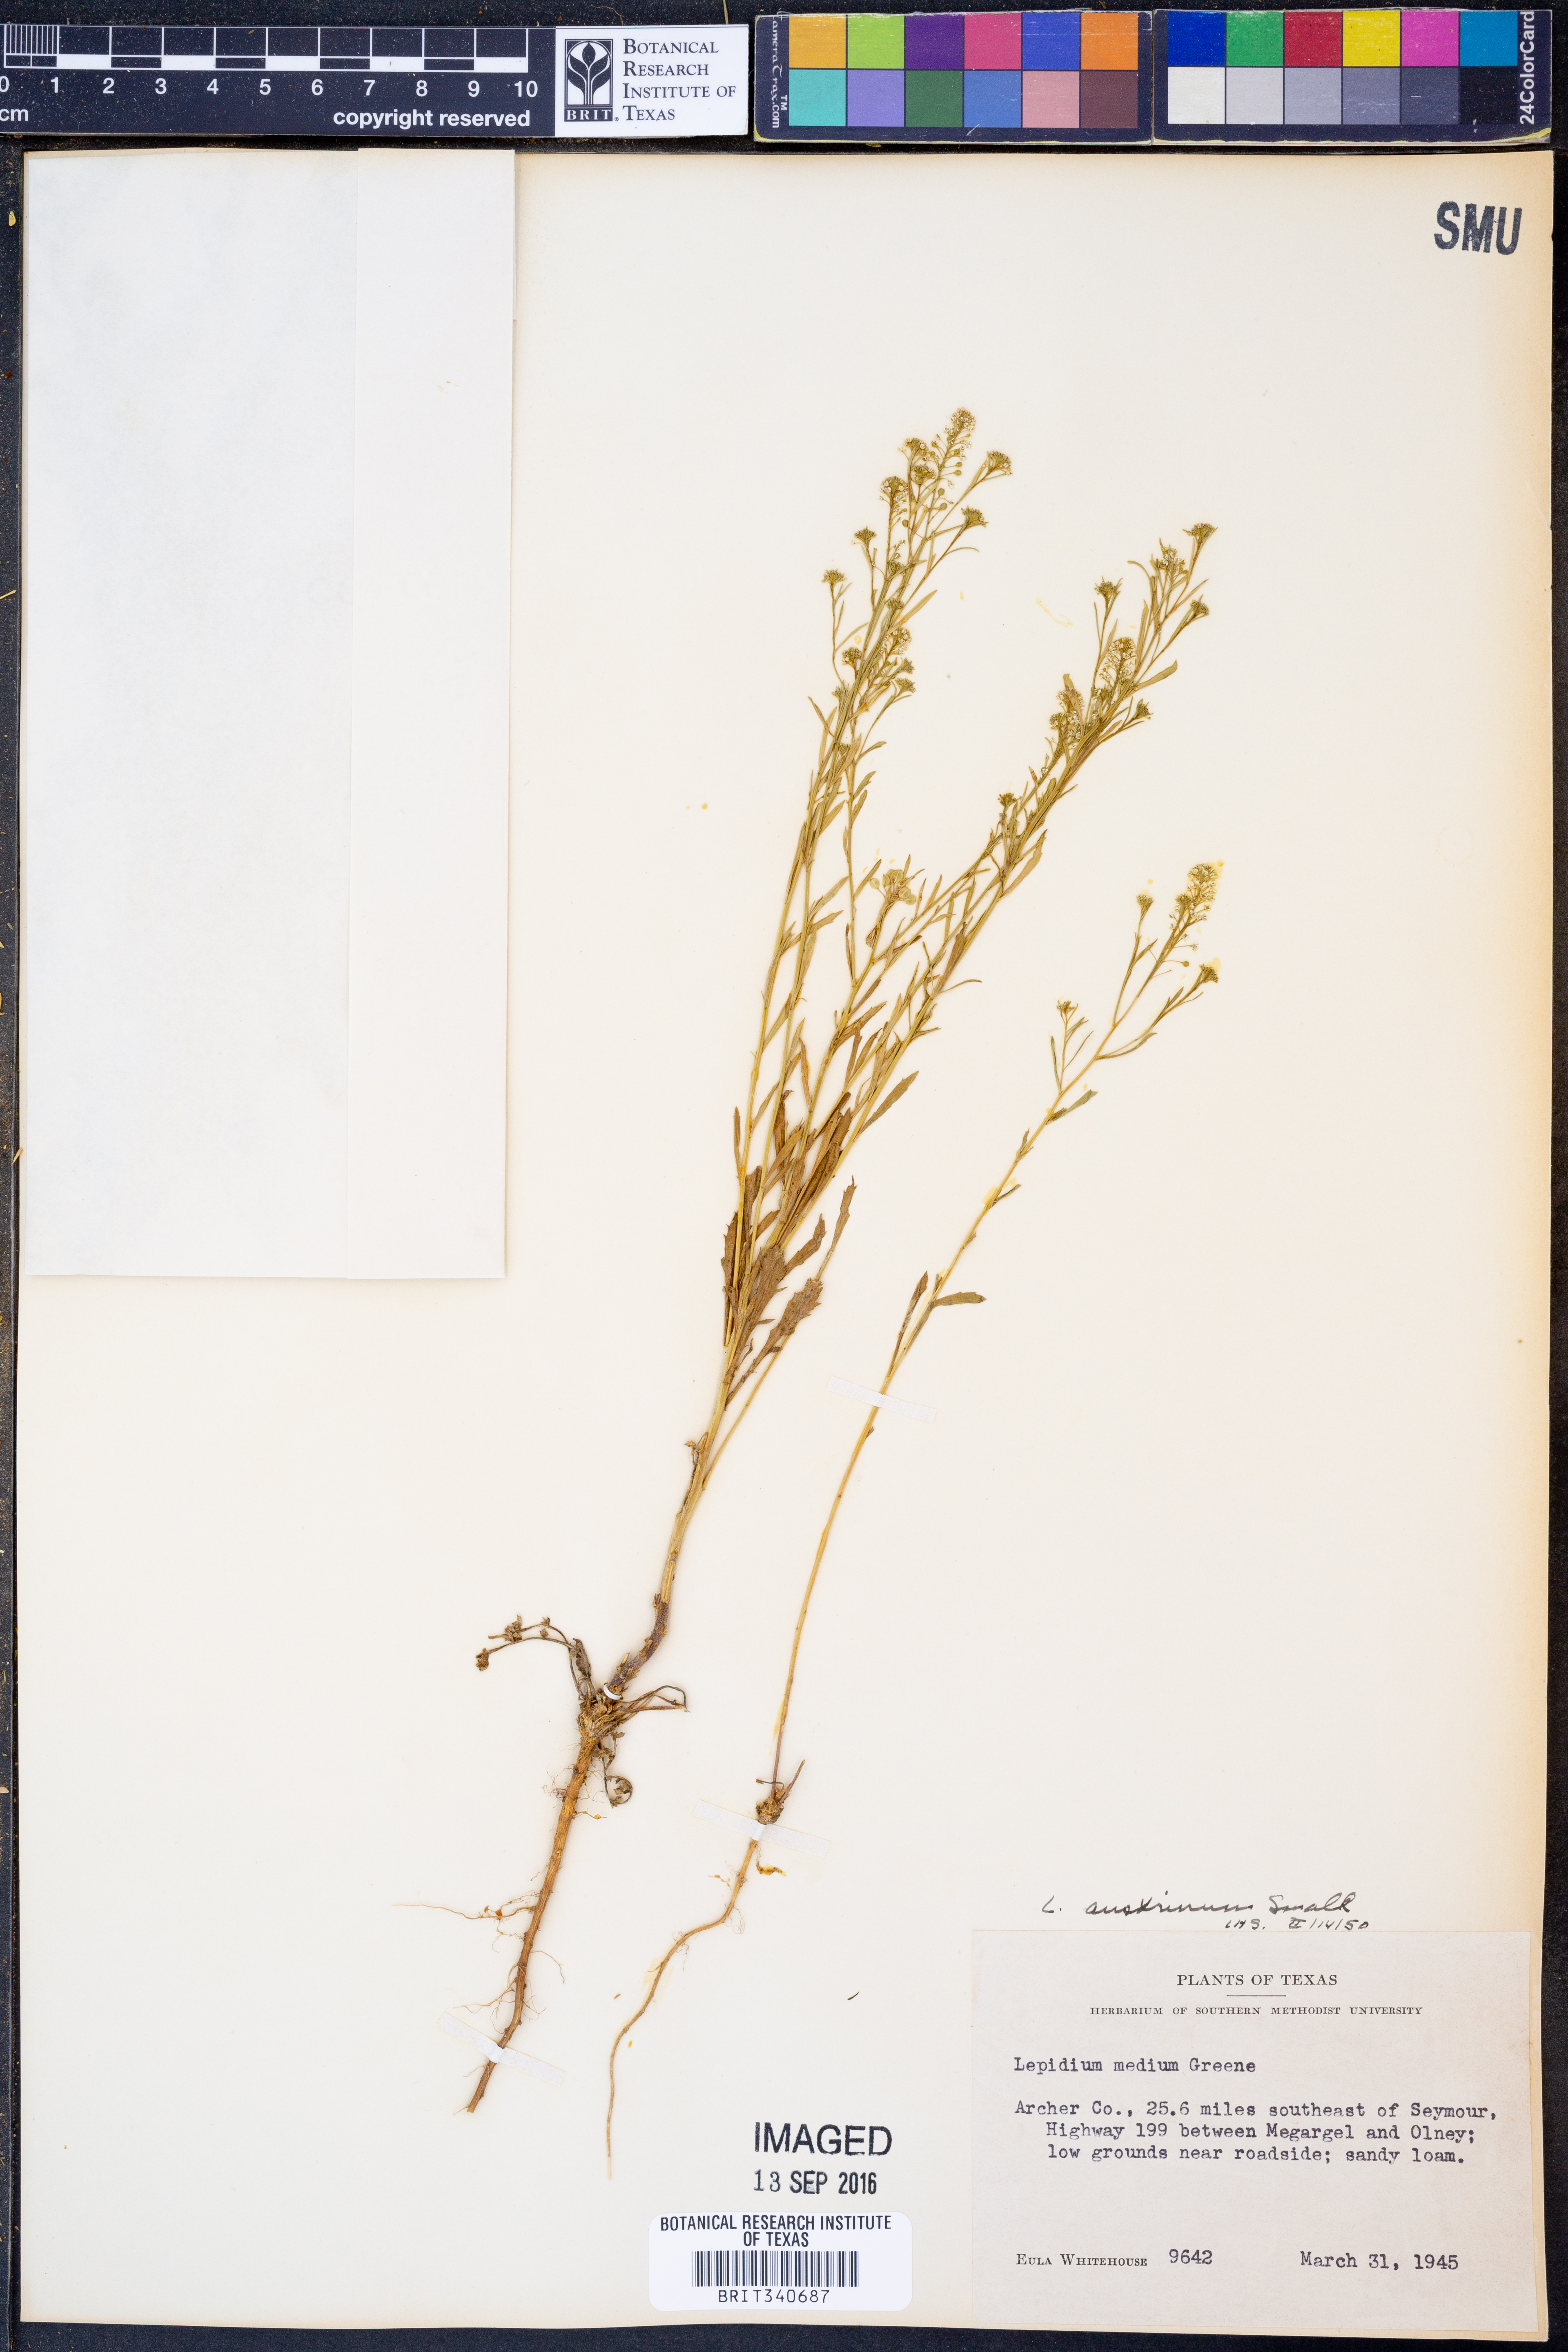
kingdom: Plantae
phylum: Tracheophyta
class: Magnoliopsida
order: Brassicales
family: Brassicaceae
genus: Lepidium
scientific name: Lepidium austrinum
